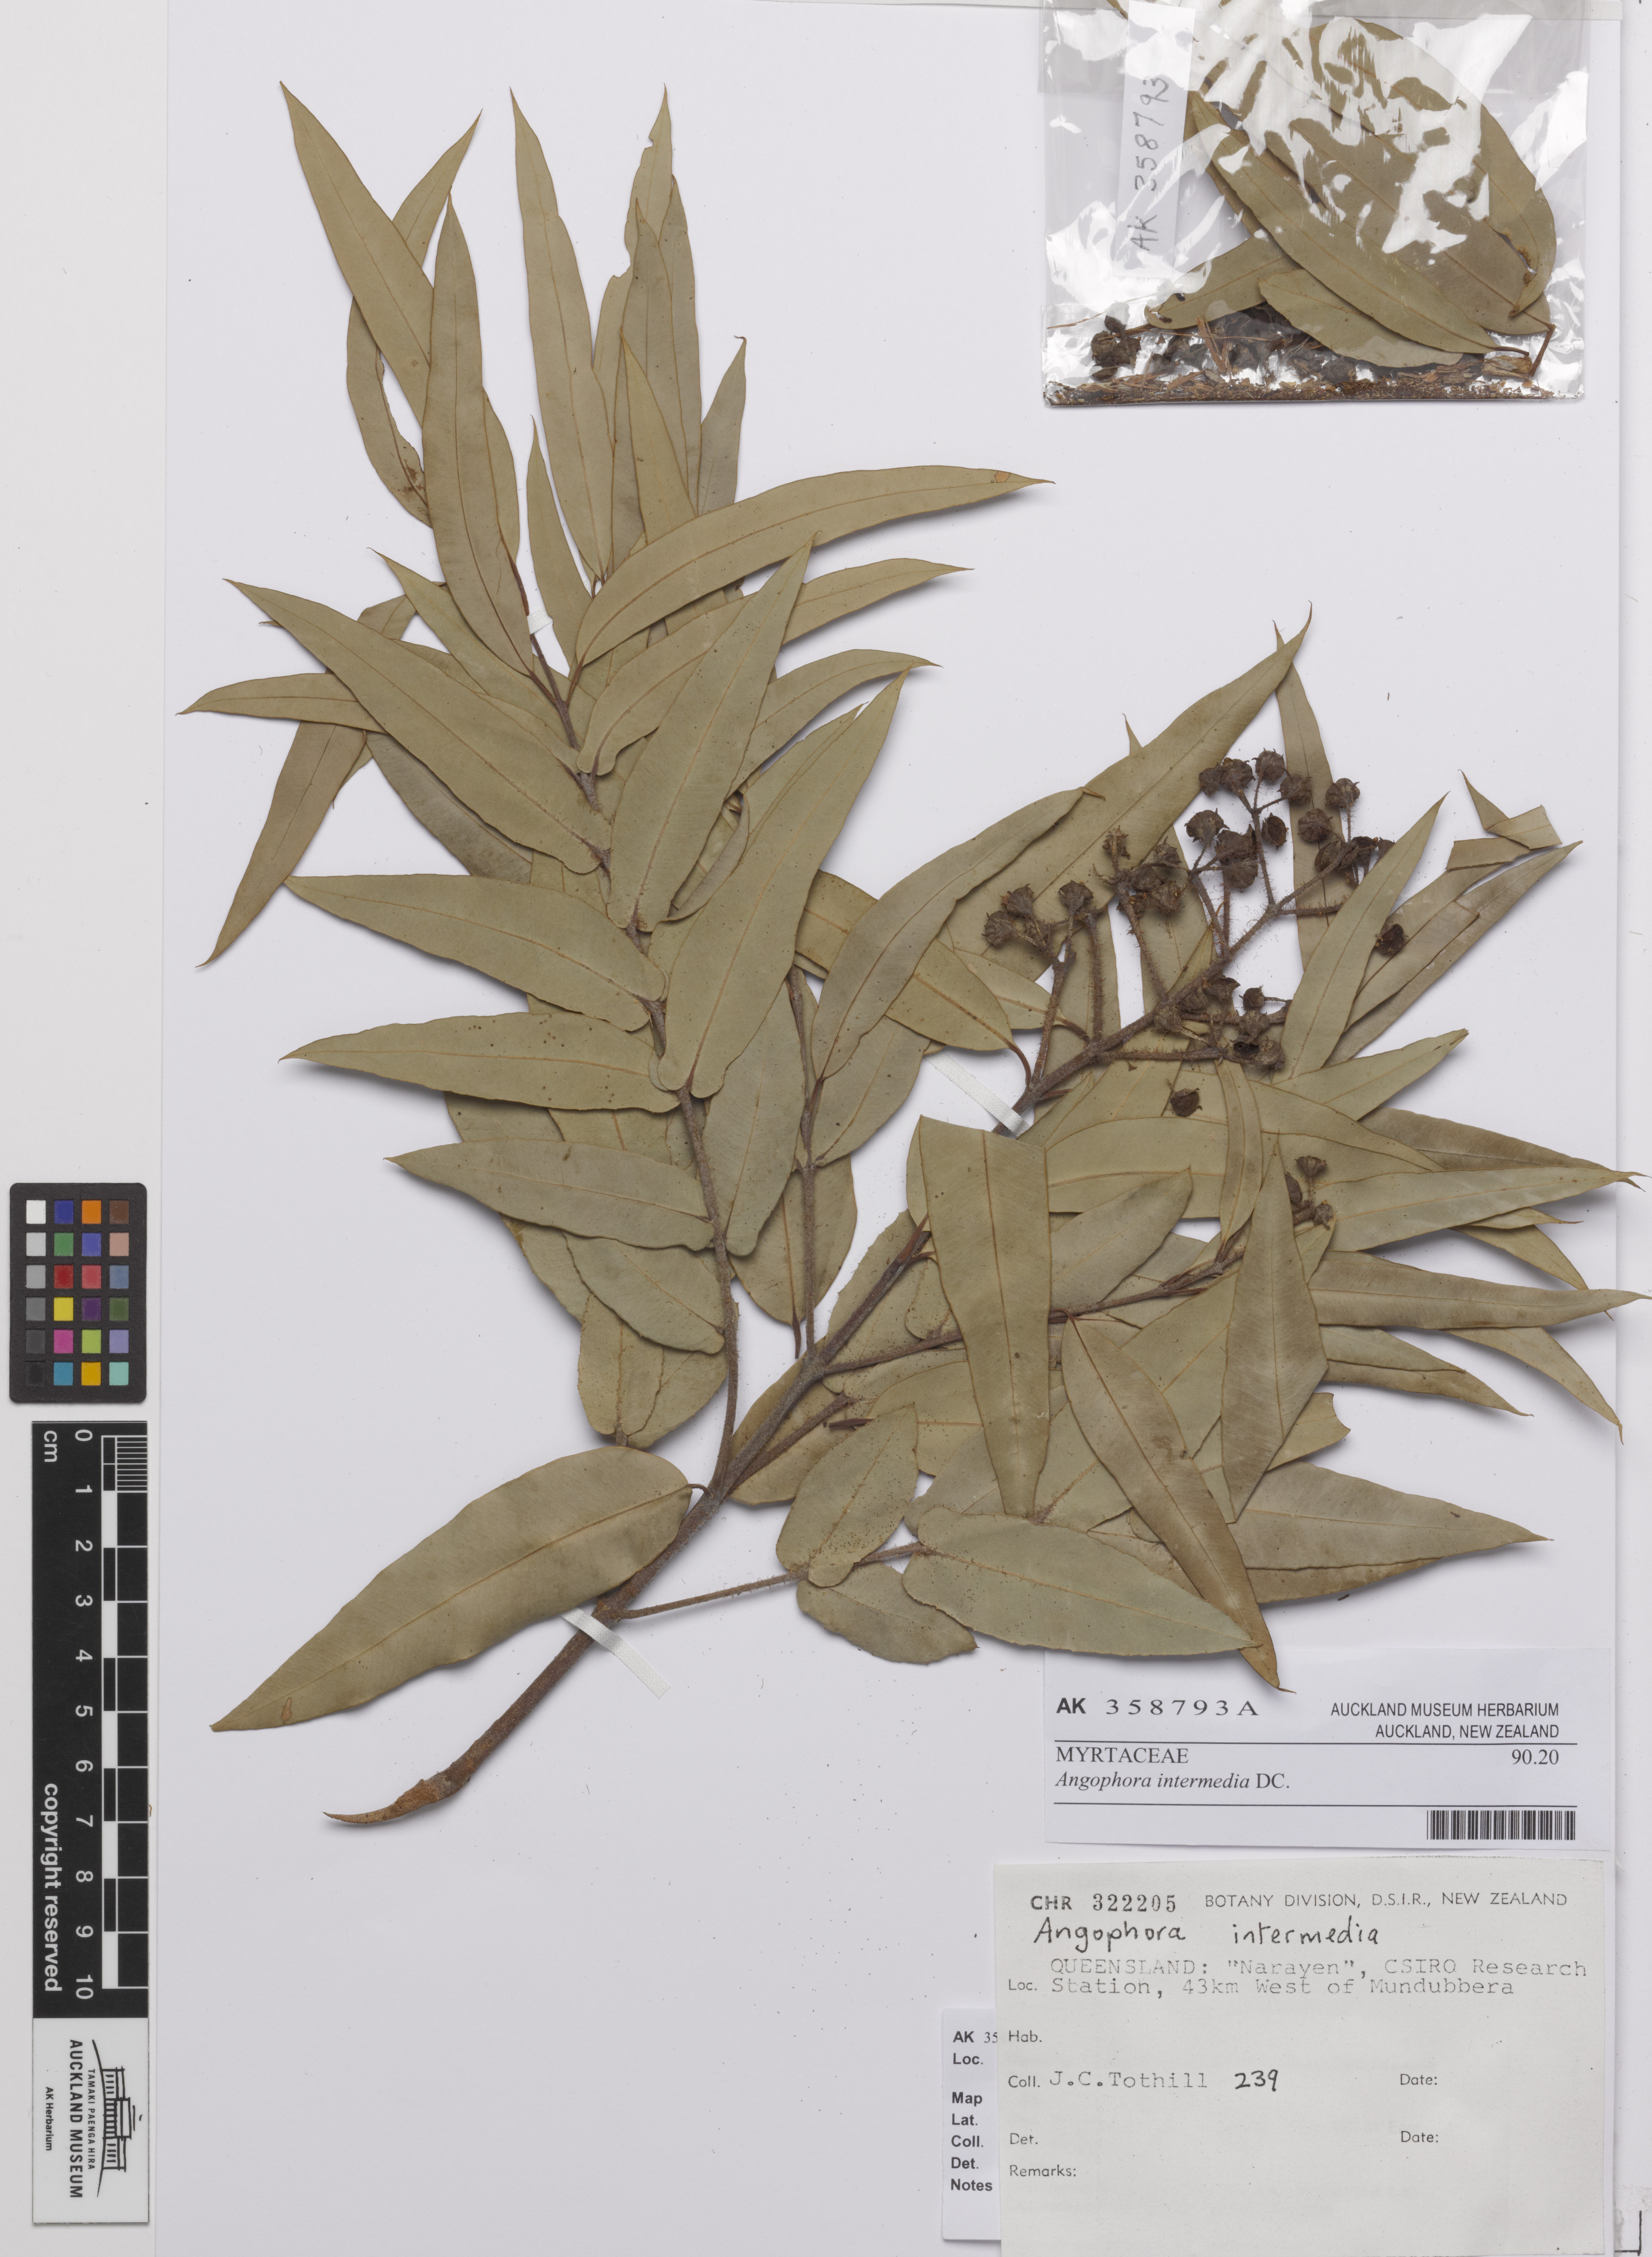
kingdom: Plantae
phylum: Tracheophyta
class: Magnoliopsida
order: Myrtales
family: Myrtaceae
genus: Angophora
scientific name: Angophora floribunda
